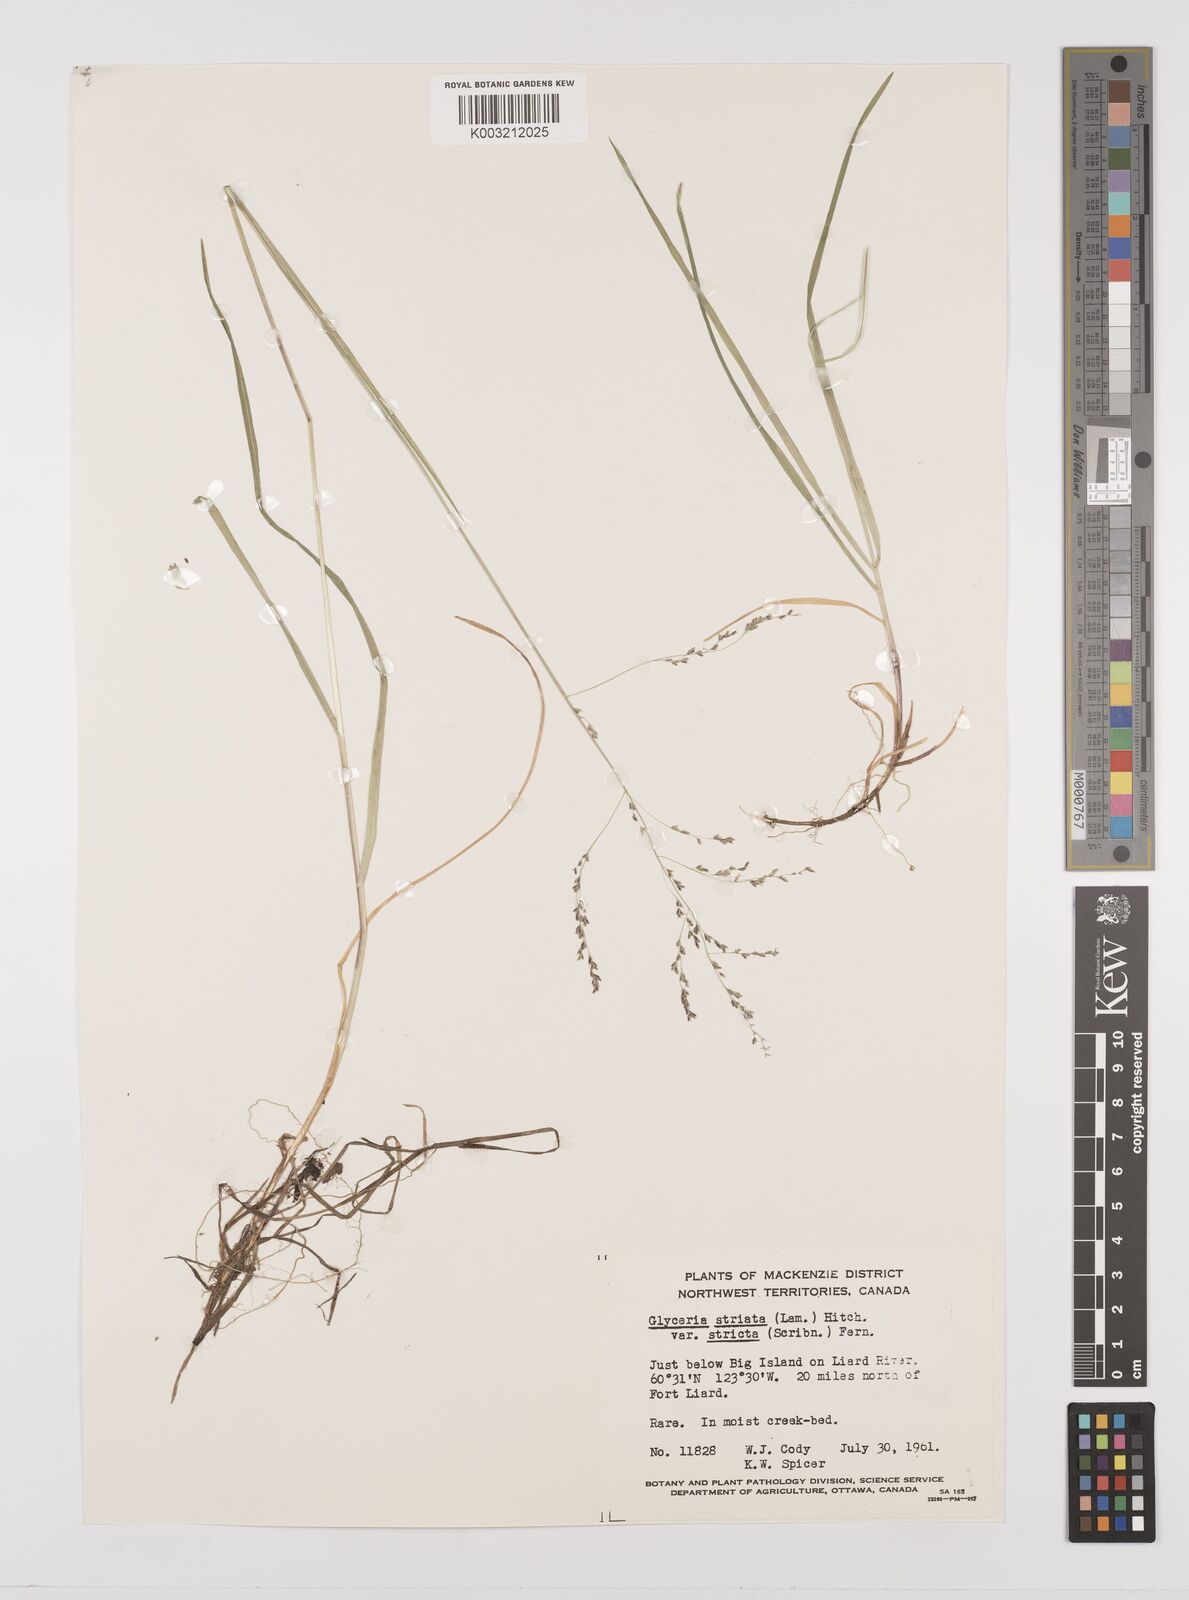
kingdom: Plantae
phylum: Tracheophyta
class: Liliopsida
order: Poales
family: Poaceae
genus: Glyceria
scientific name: Glyceria striata
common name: Fowl manna grass
